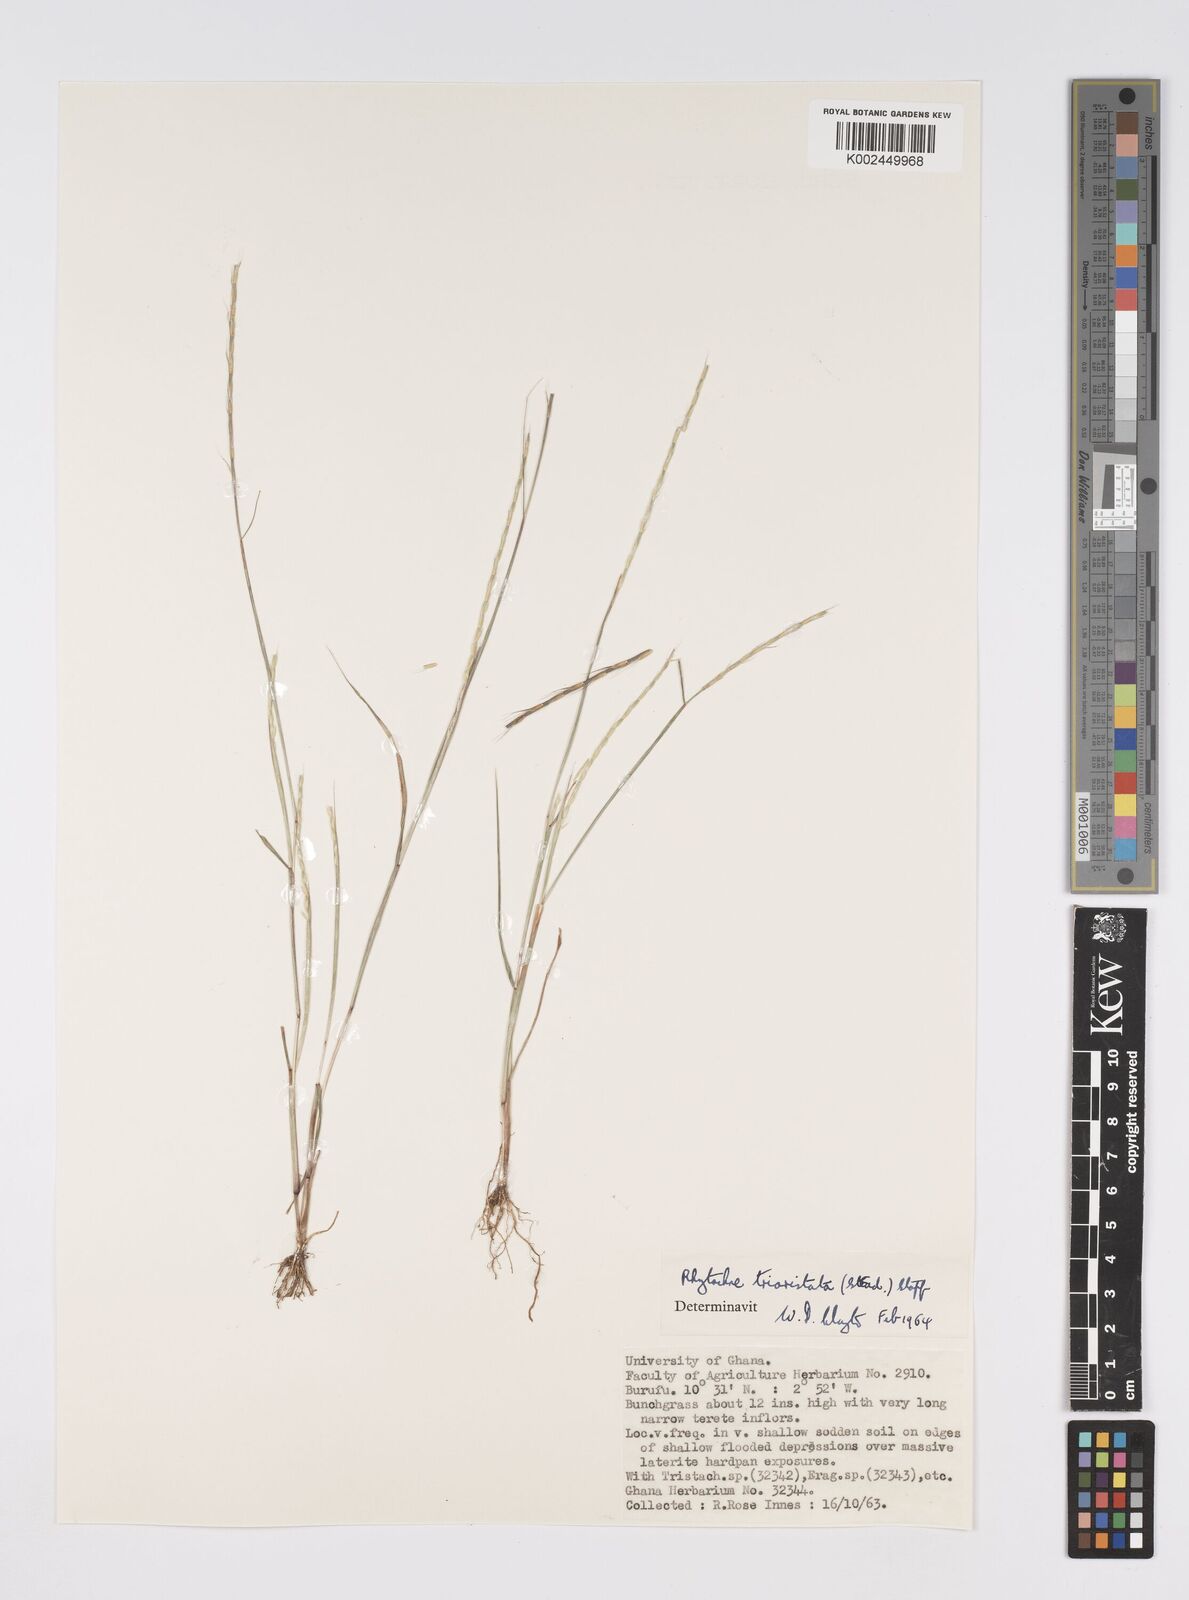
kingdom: Plantae
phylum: Tracheophyta
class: Liliopsida
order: Poales
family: Poaceae
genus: Rhytachne
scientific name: Rhytachne triaristata
